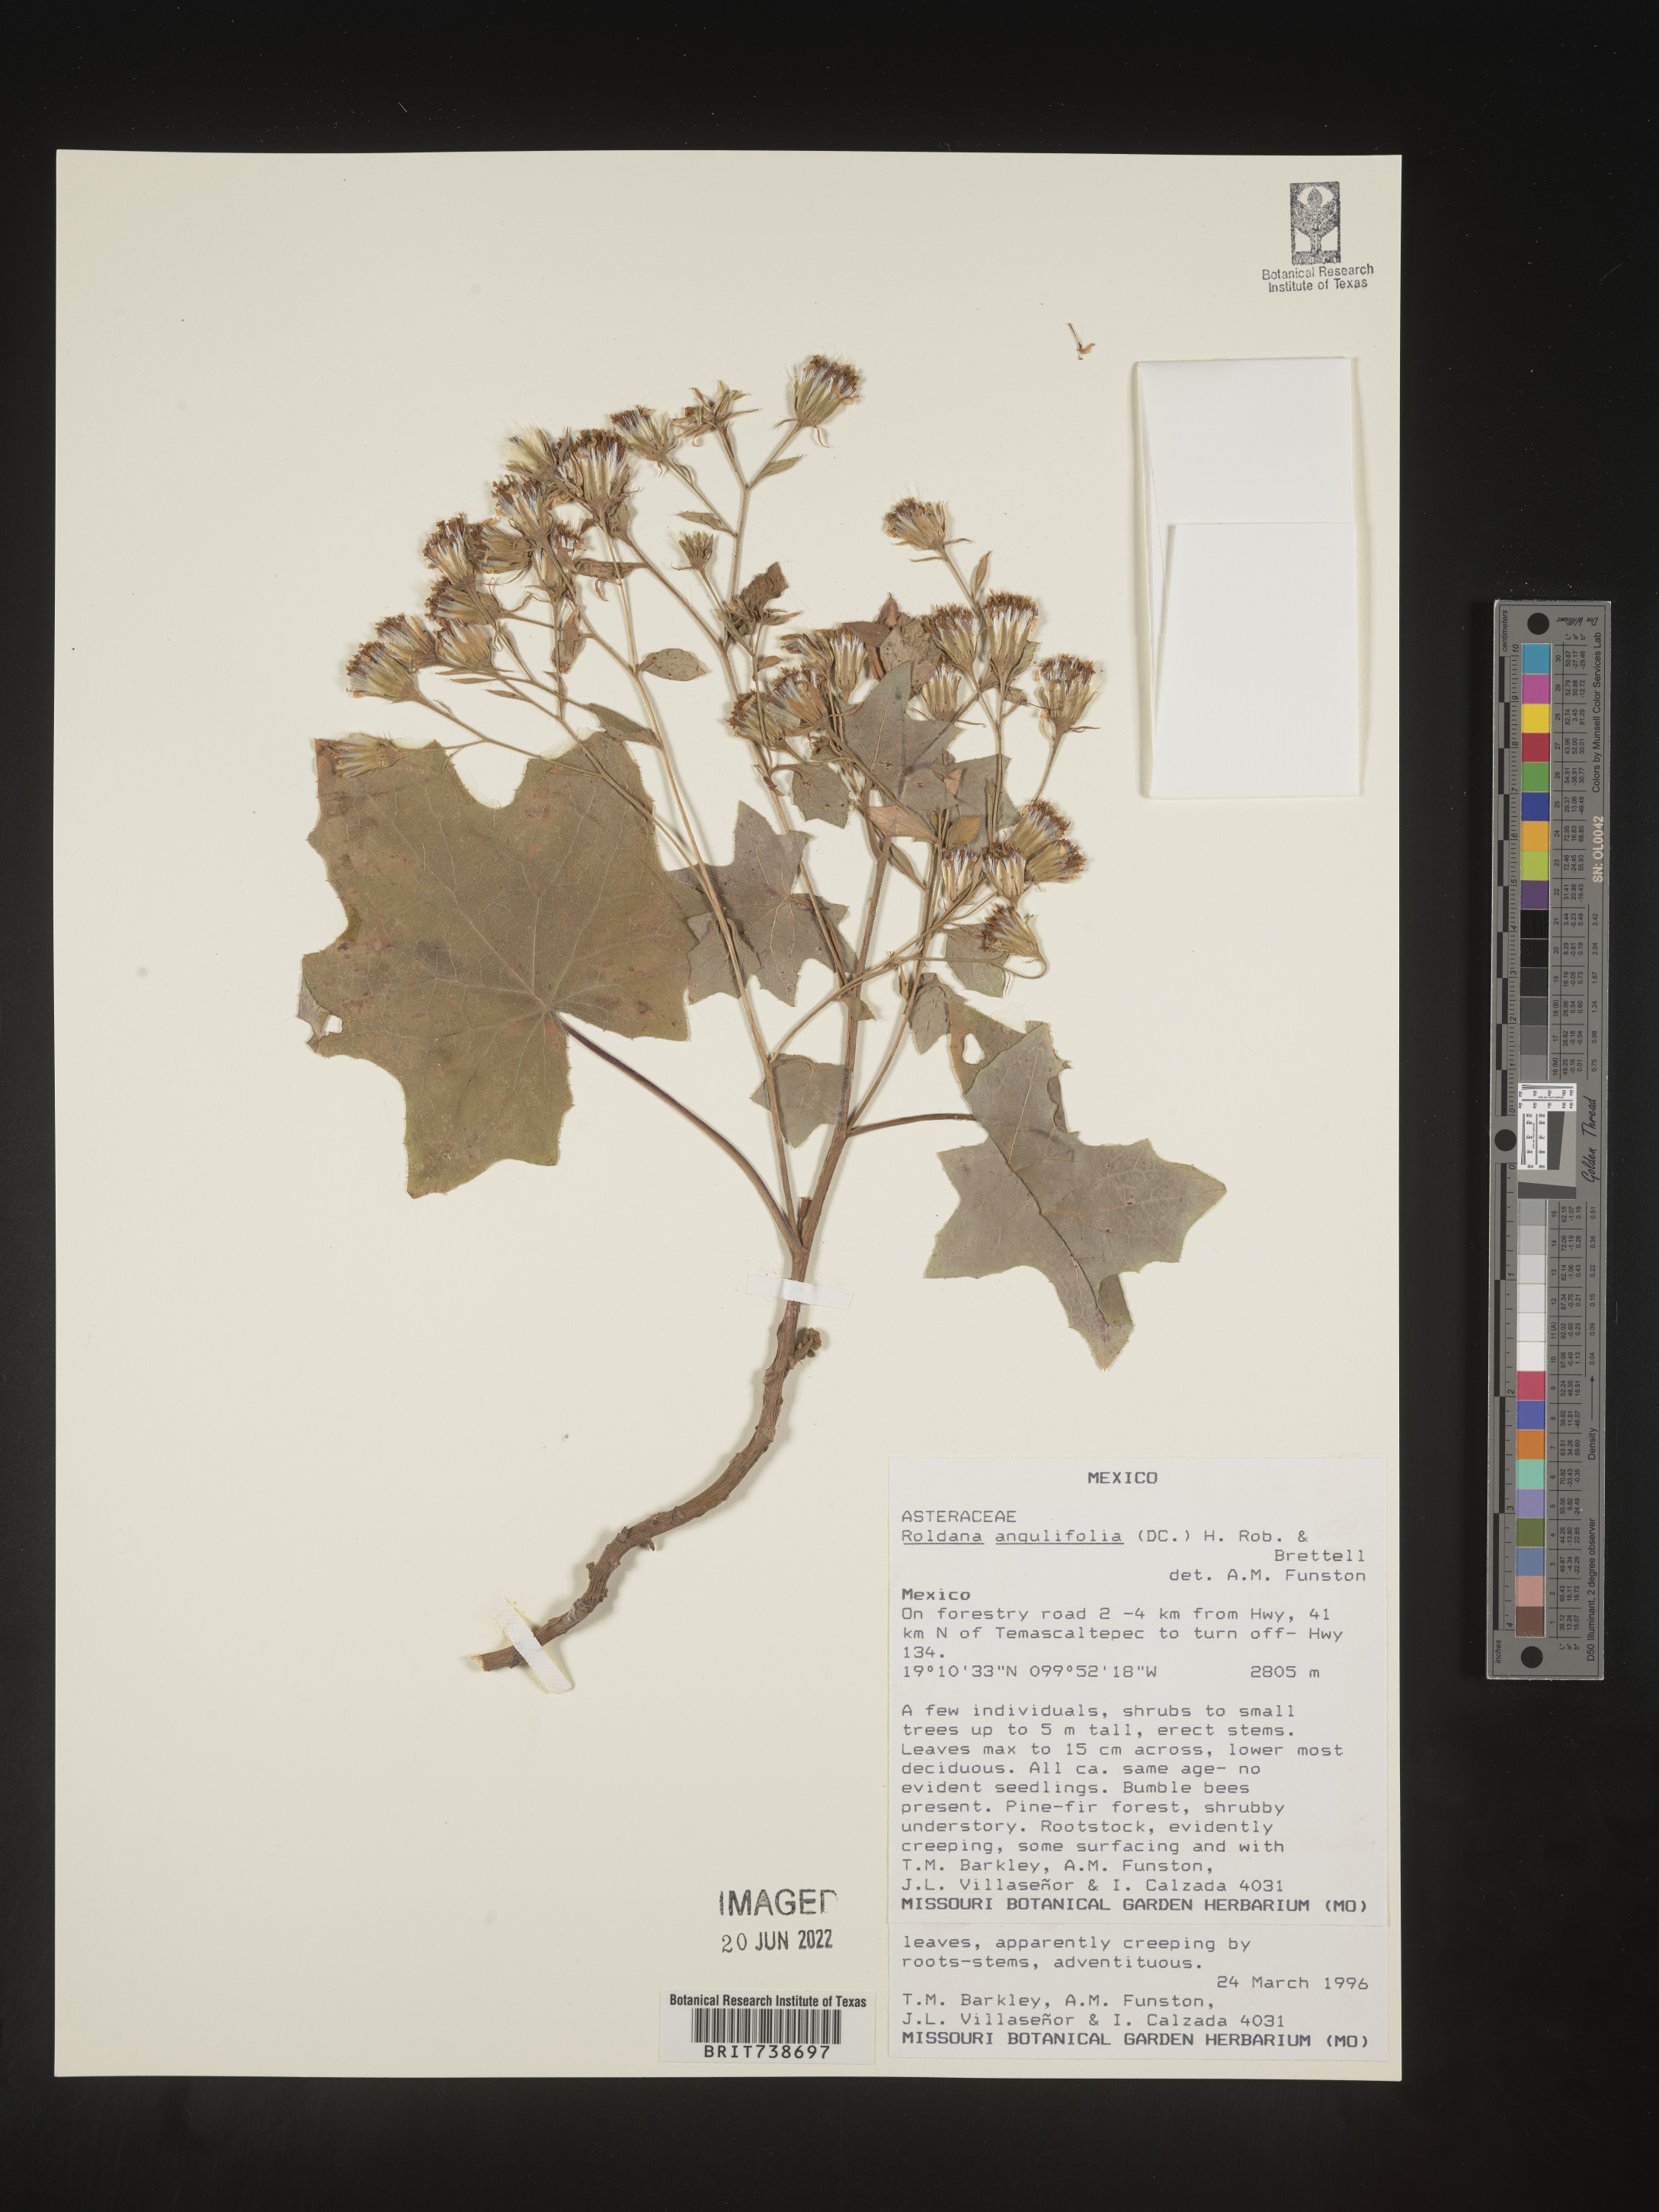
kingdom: Plantae
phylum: Tracheophyta
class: Magnoliopsida
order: Asterales
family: Asteraceae
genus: Roldana
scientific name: Roldana
